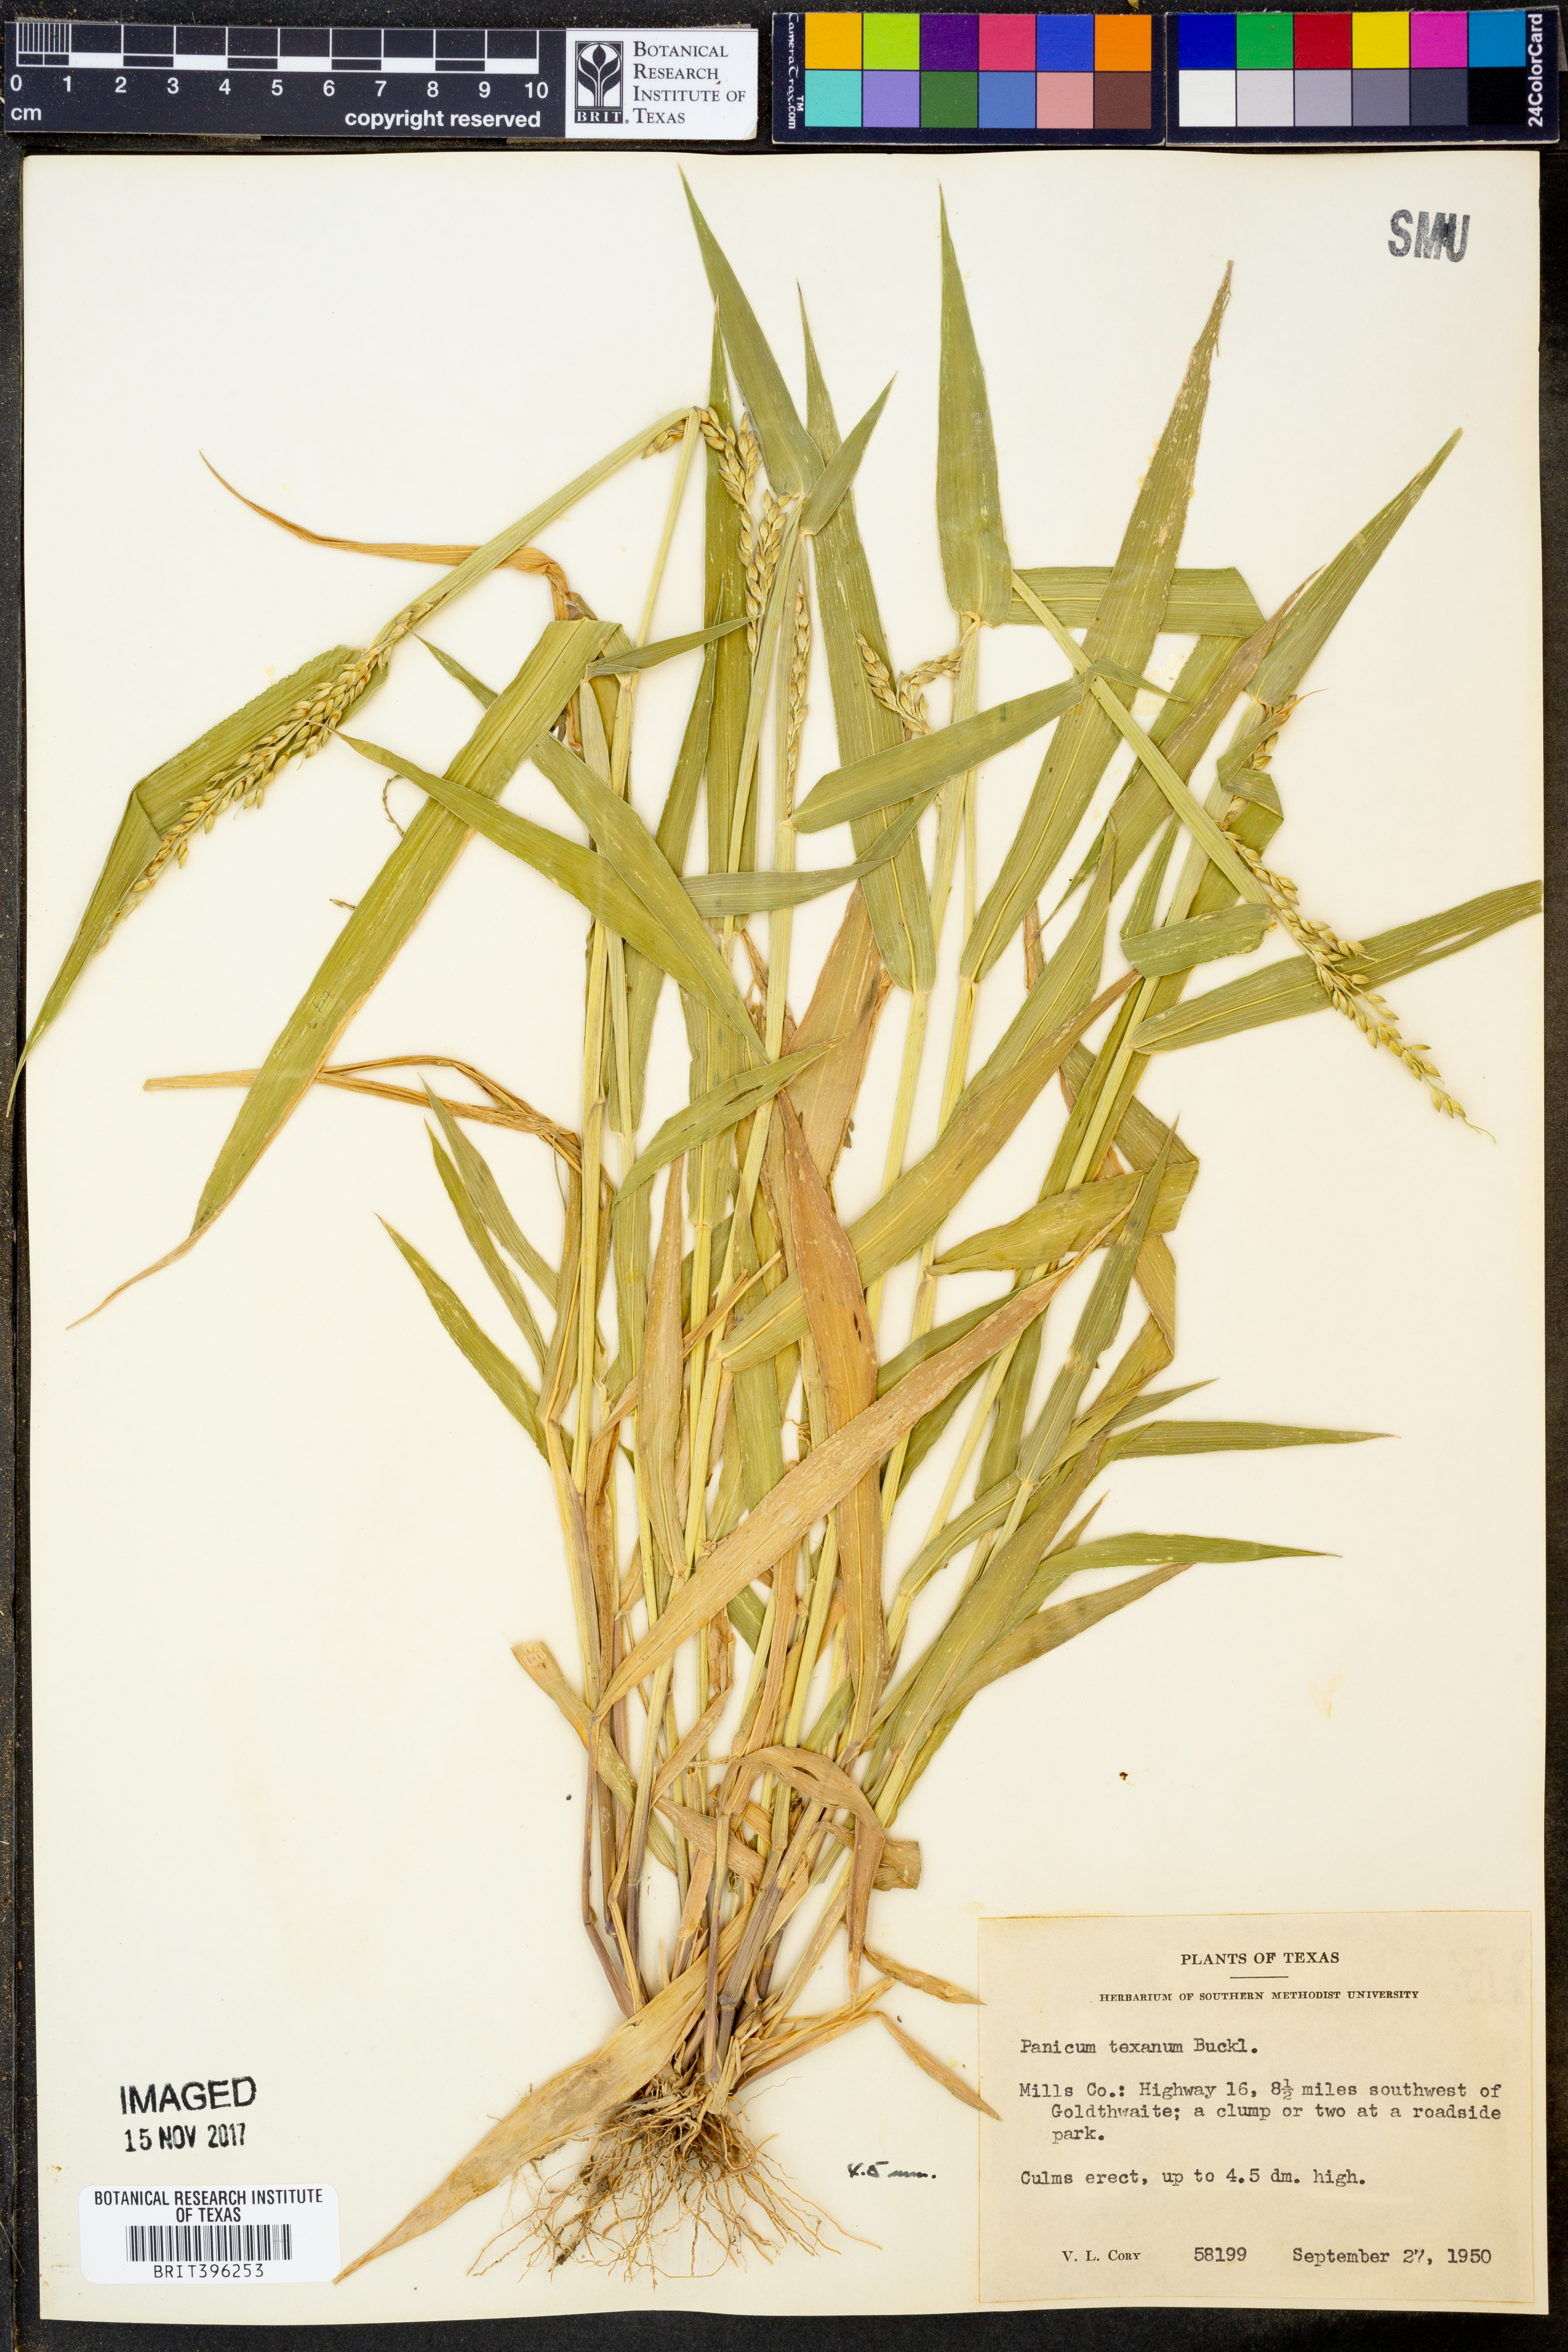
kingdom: Plantae
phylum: Tracheophyta
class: Liliopsida
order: Poales
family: Poaceae
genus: Urochloa
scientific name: Urochloa texana
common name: Texas millet
